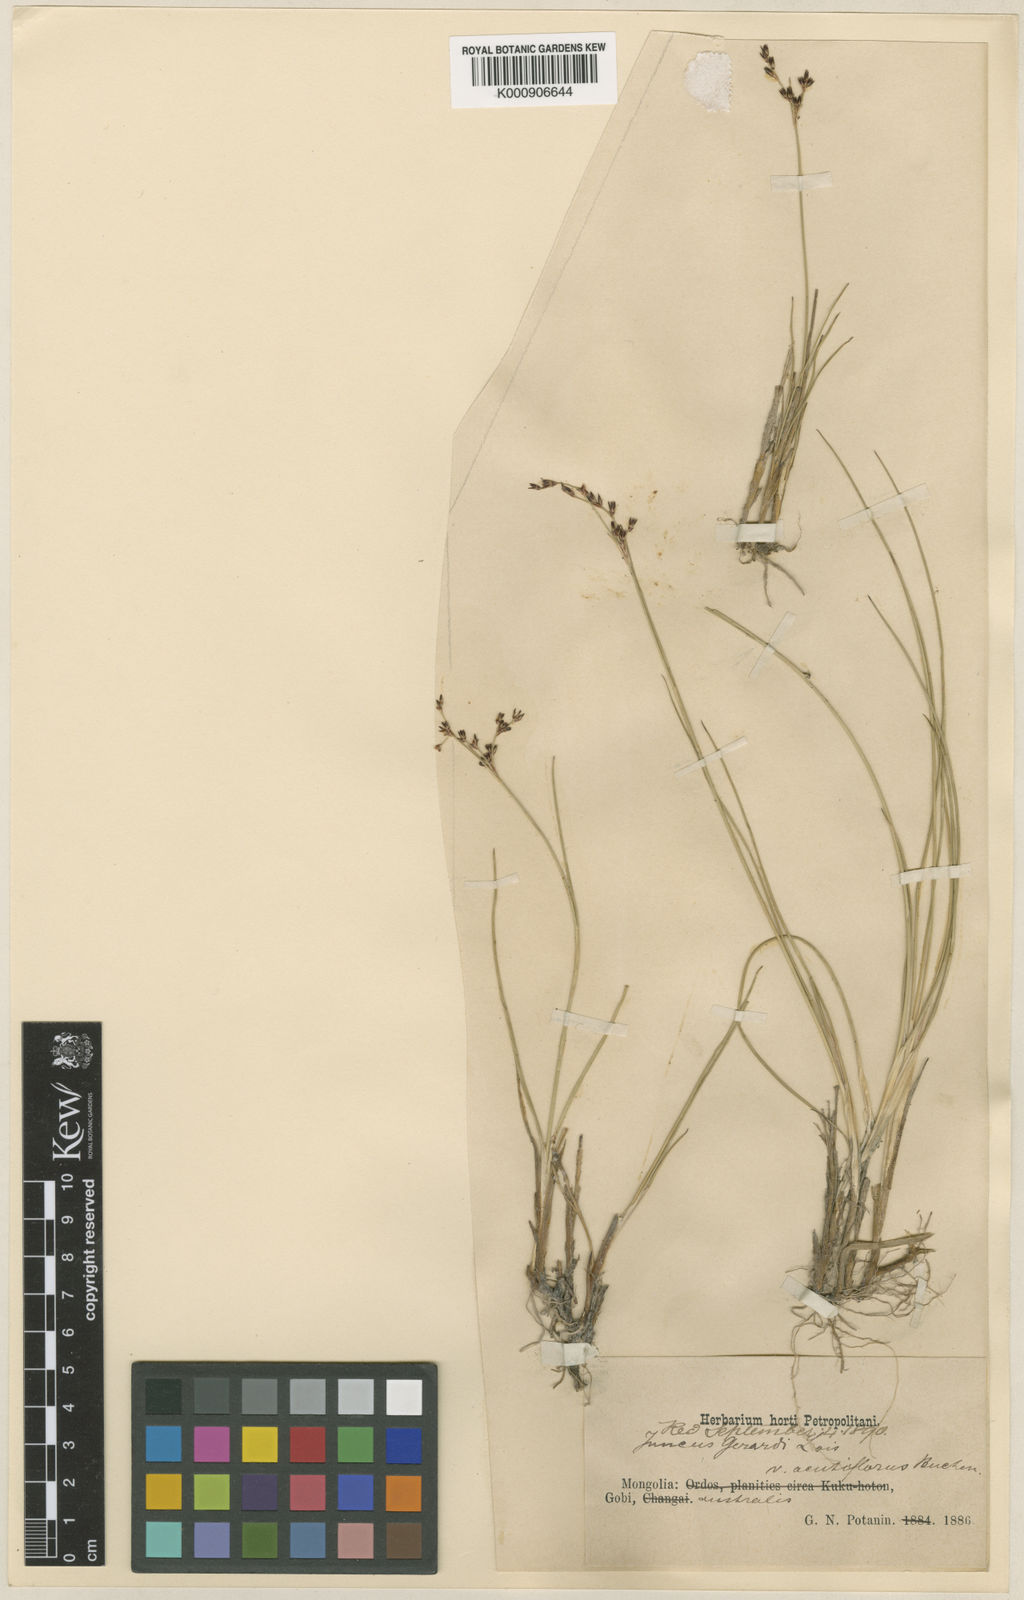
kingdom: Plantae
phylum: Tracheophyta
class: Liliopsida
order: Poales
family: Juncaceae
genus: Juncus
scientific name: Juncus persicus
